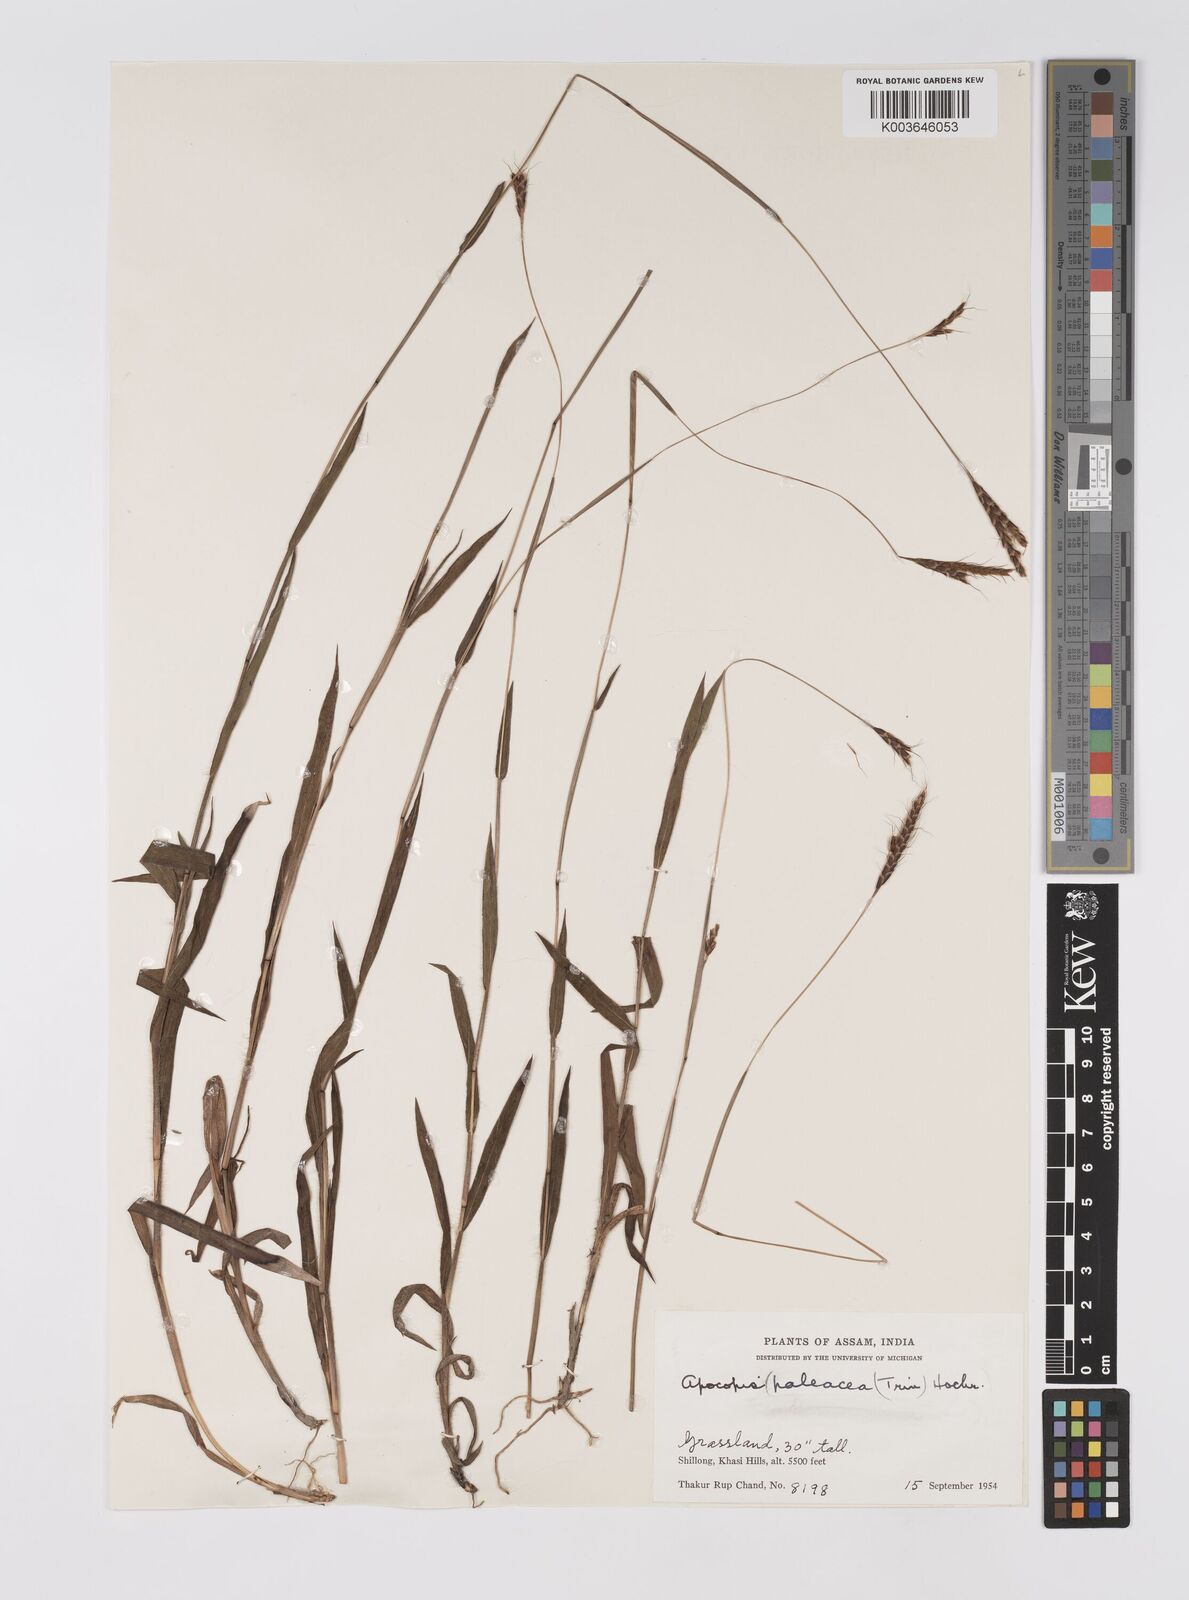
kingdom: Plantae
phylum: Tracheophyta
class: Liliopsida
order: Poales
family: Poaceae
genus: Apocopis
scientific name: Apocopis paleaceus
